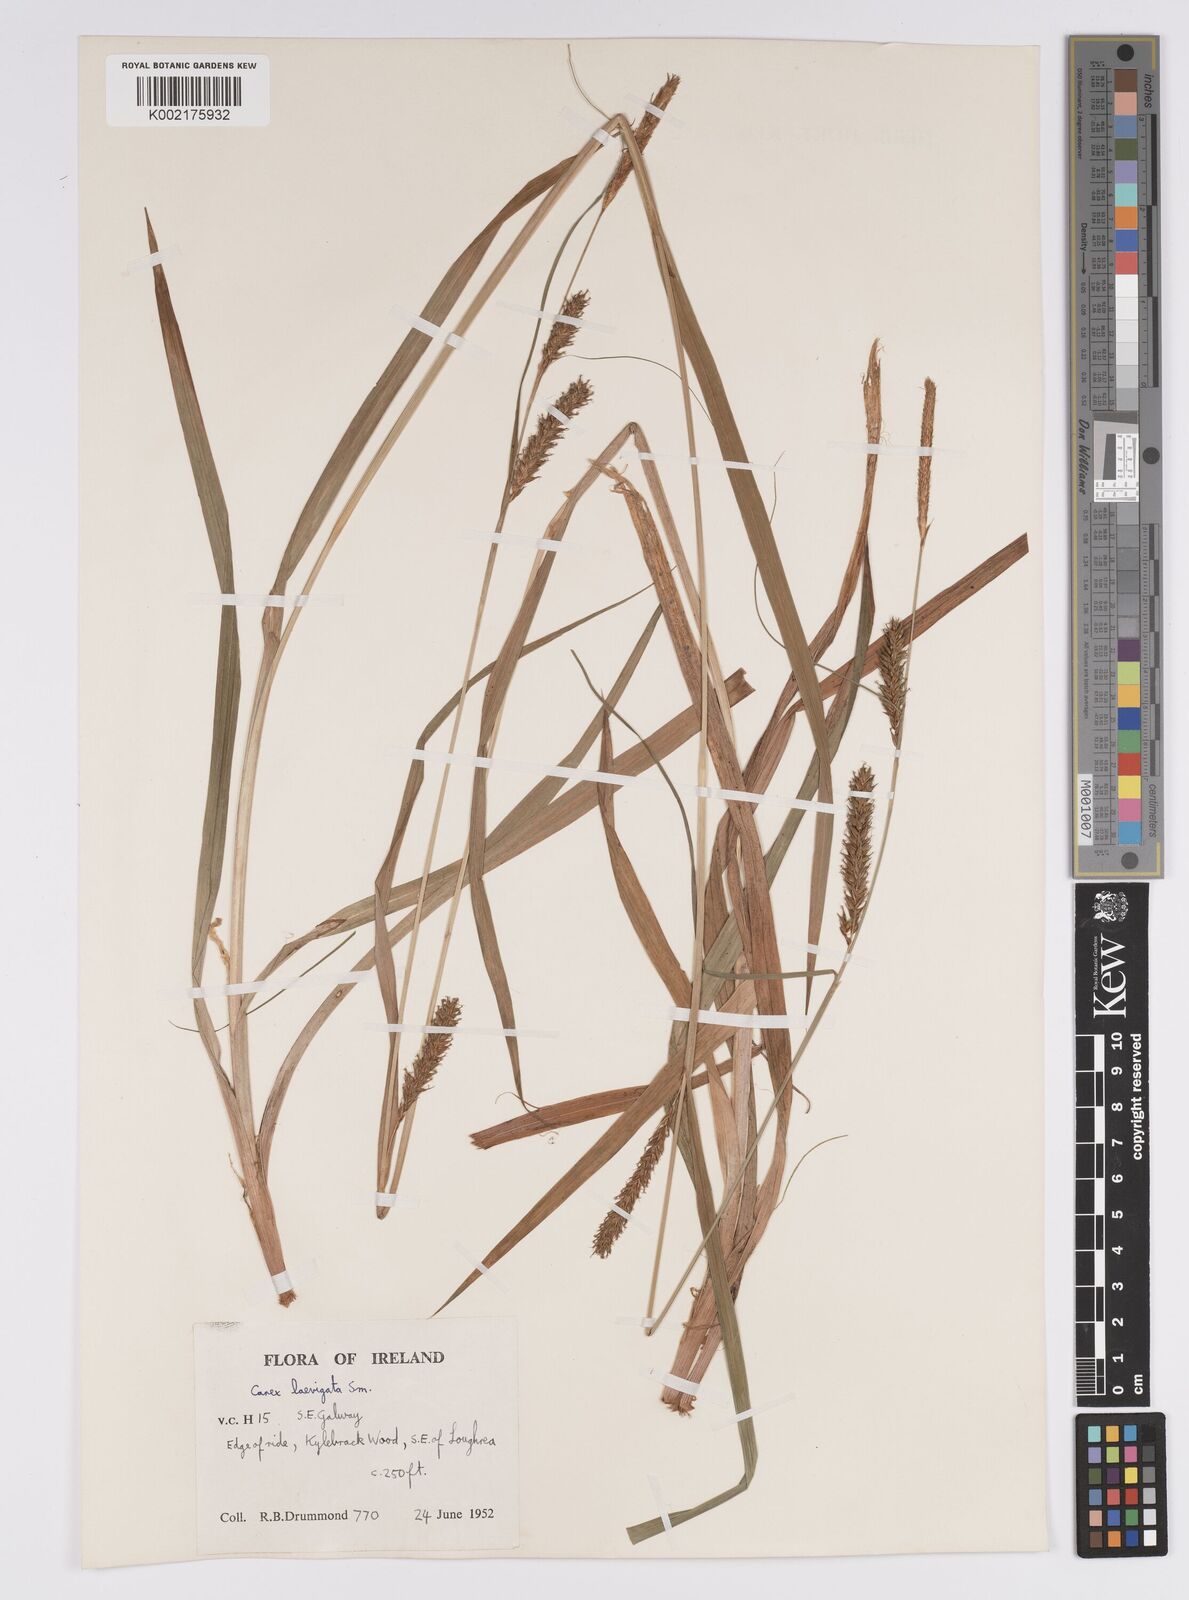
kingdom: Plantae
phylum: Tracheophyta
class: Liliopsida
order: Poales
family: Cyperaceae
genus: Carex
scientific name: Carex laevigata
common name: Smooth-stalked sedge
